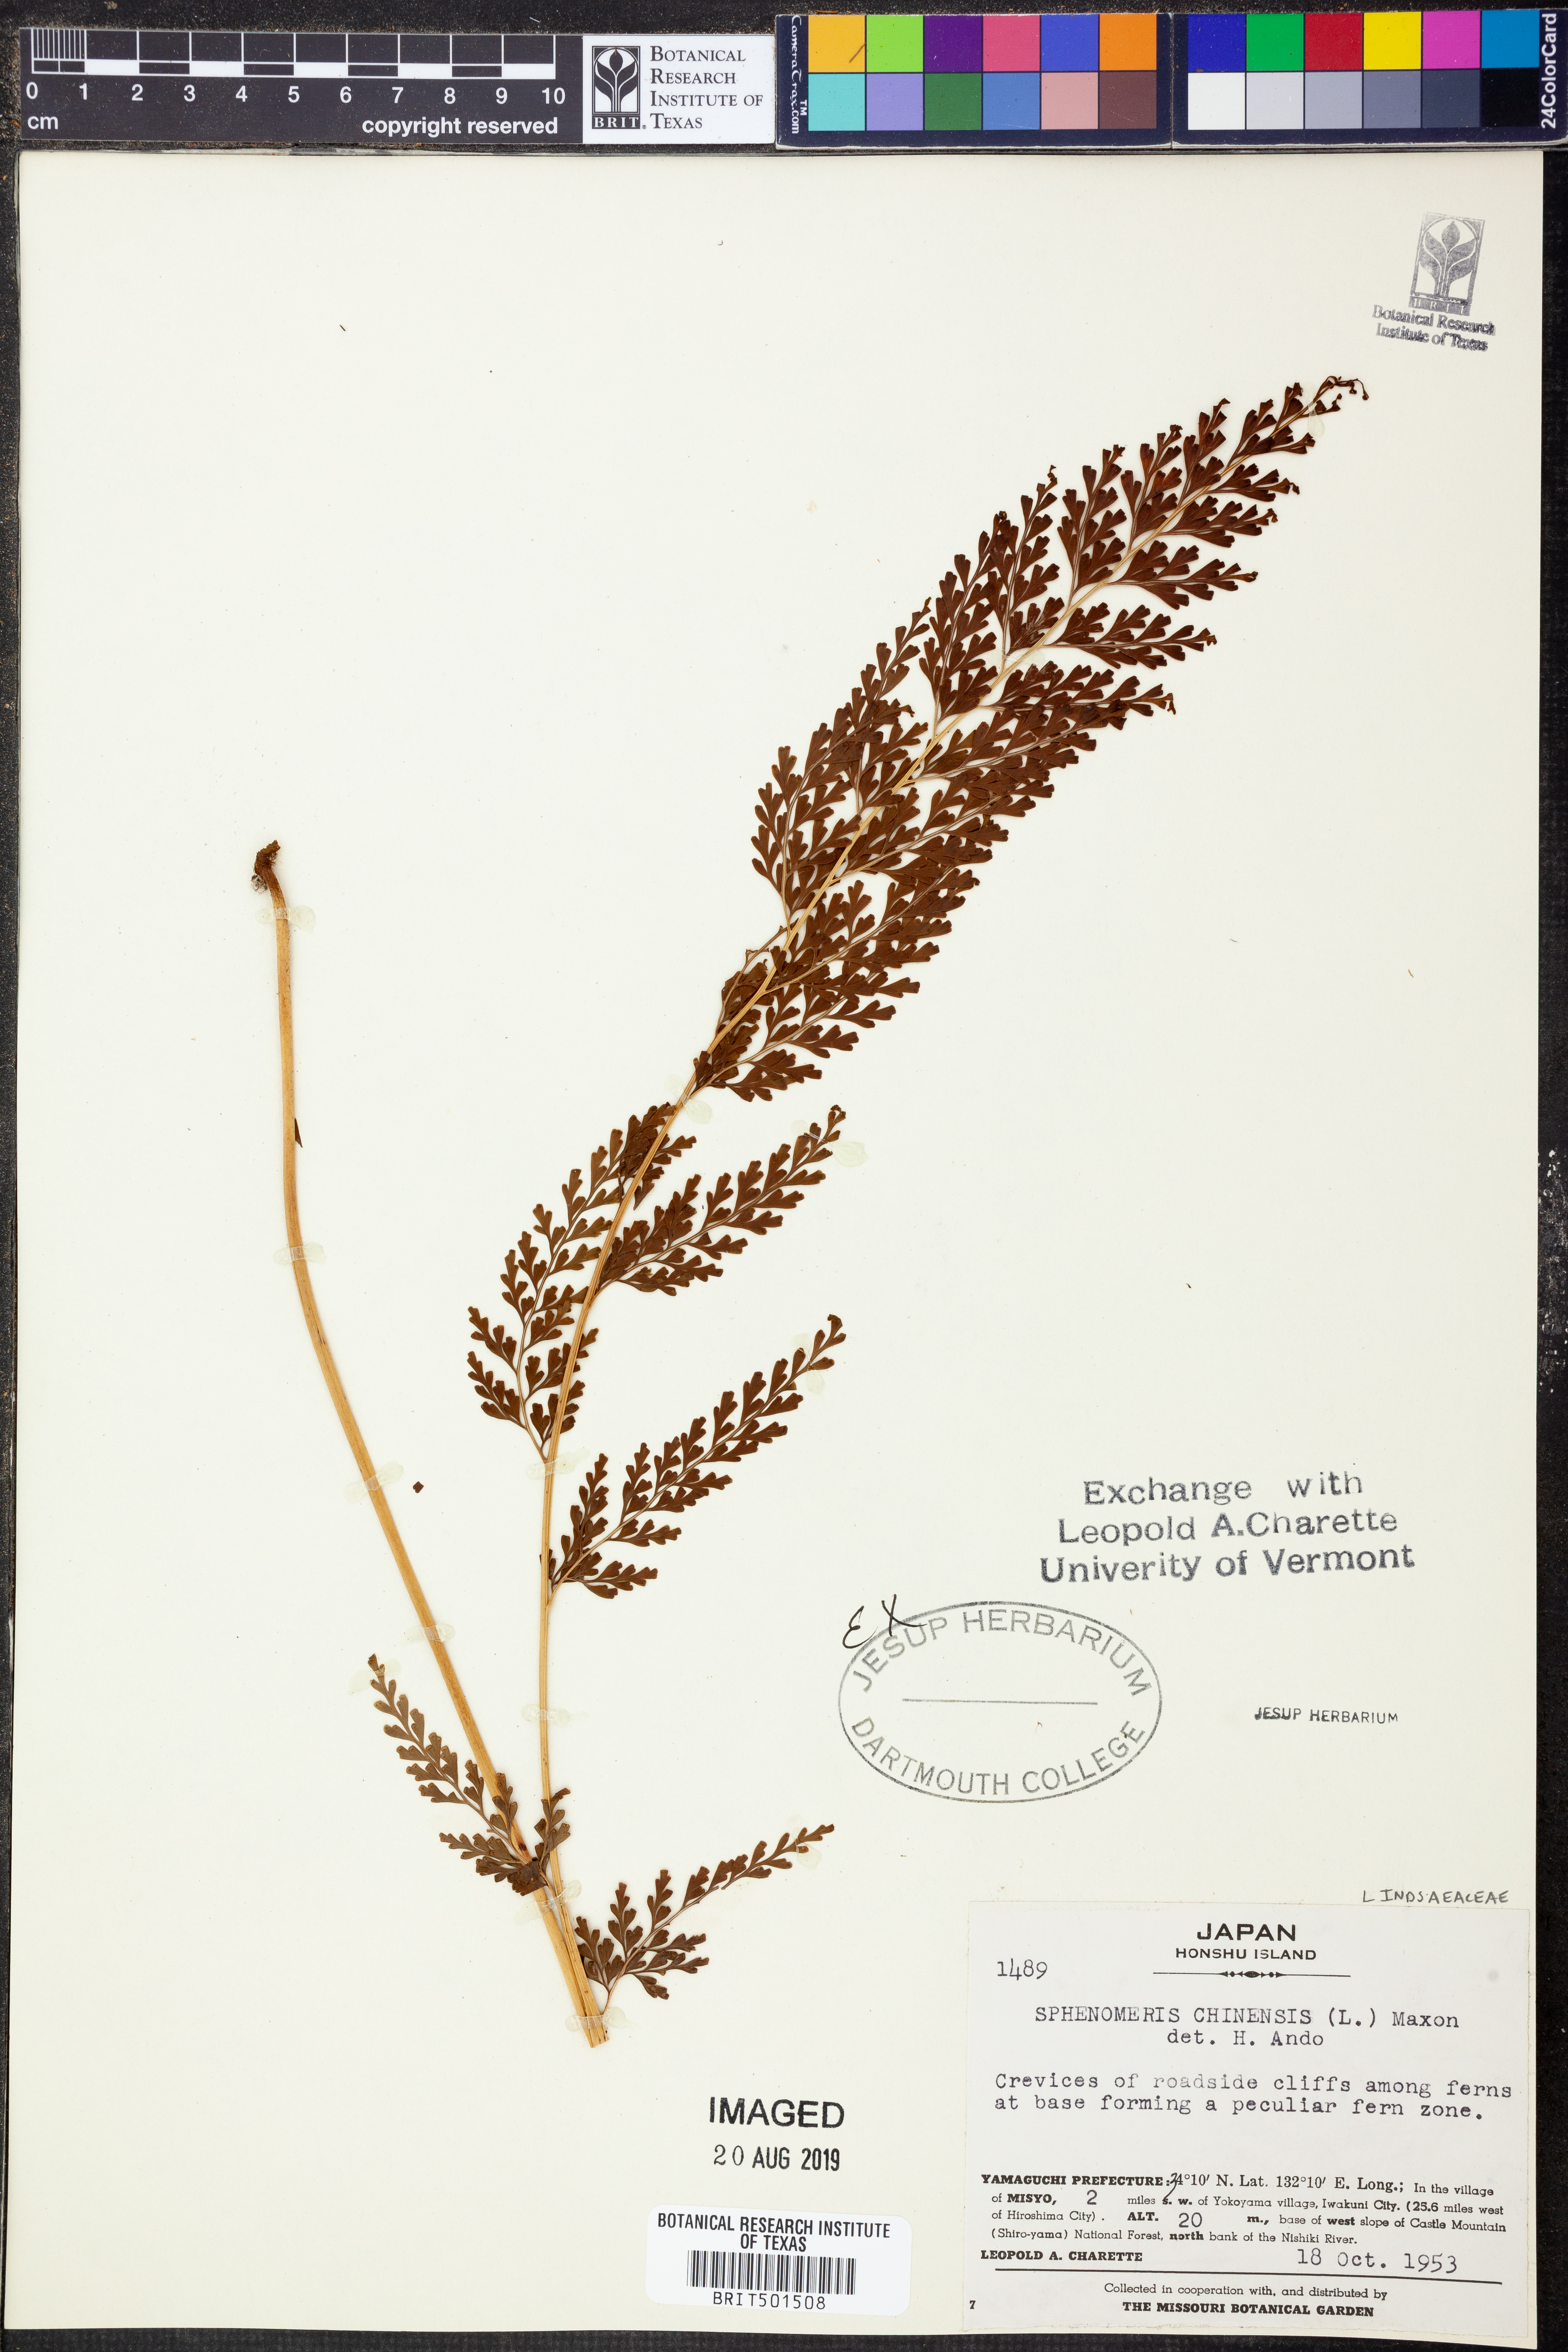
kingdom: Plantae
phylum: Tracheophyta
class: Polypodiopsida
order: Polypodiales
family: Lindsaeaceae
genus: Odontosoria
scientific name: Odontosoria chinensis
